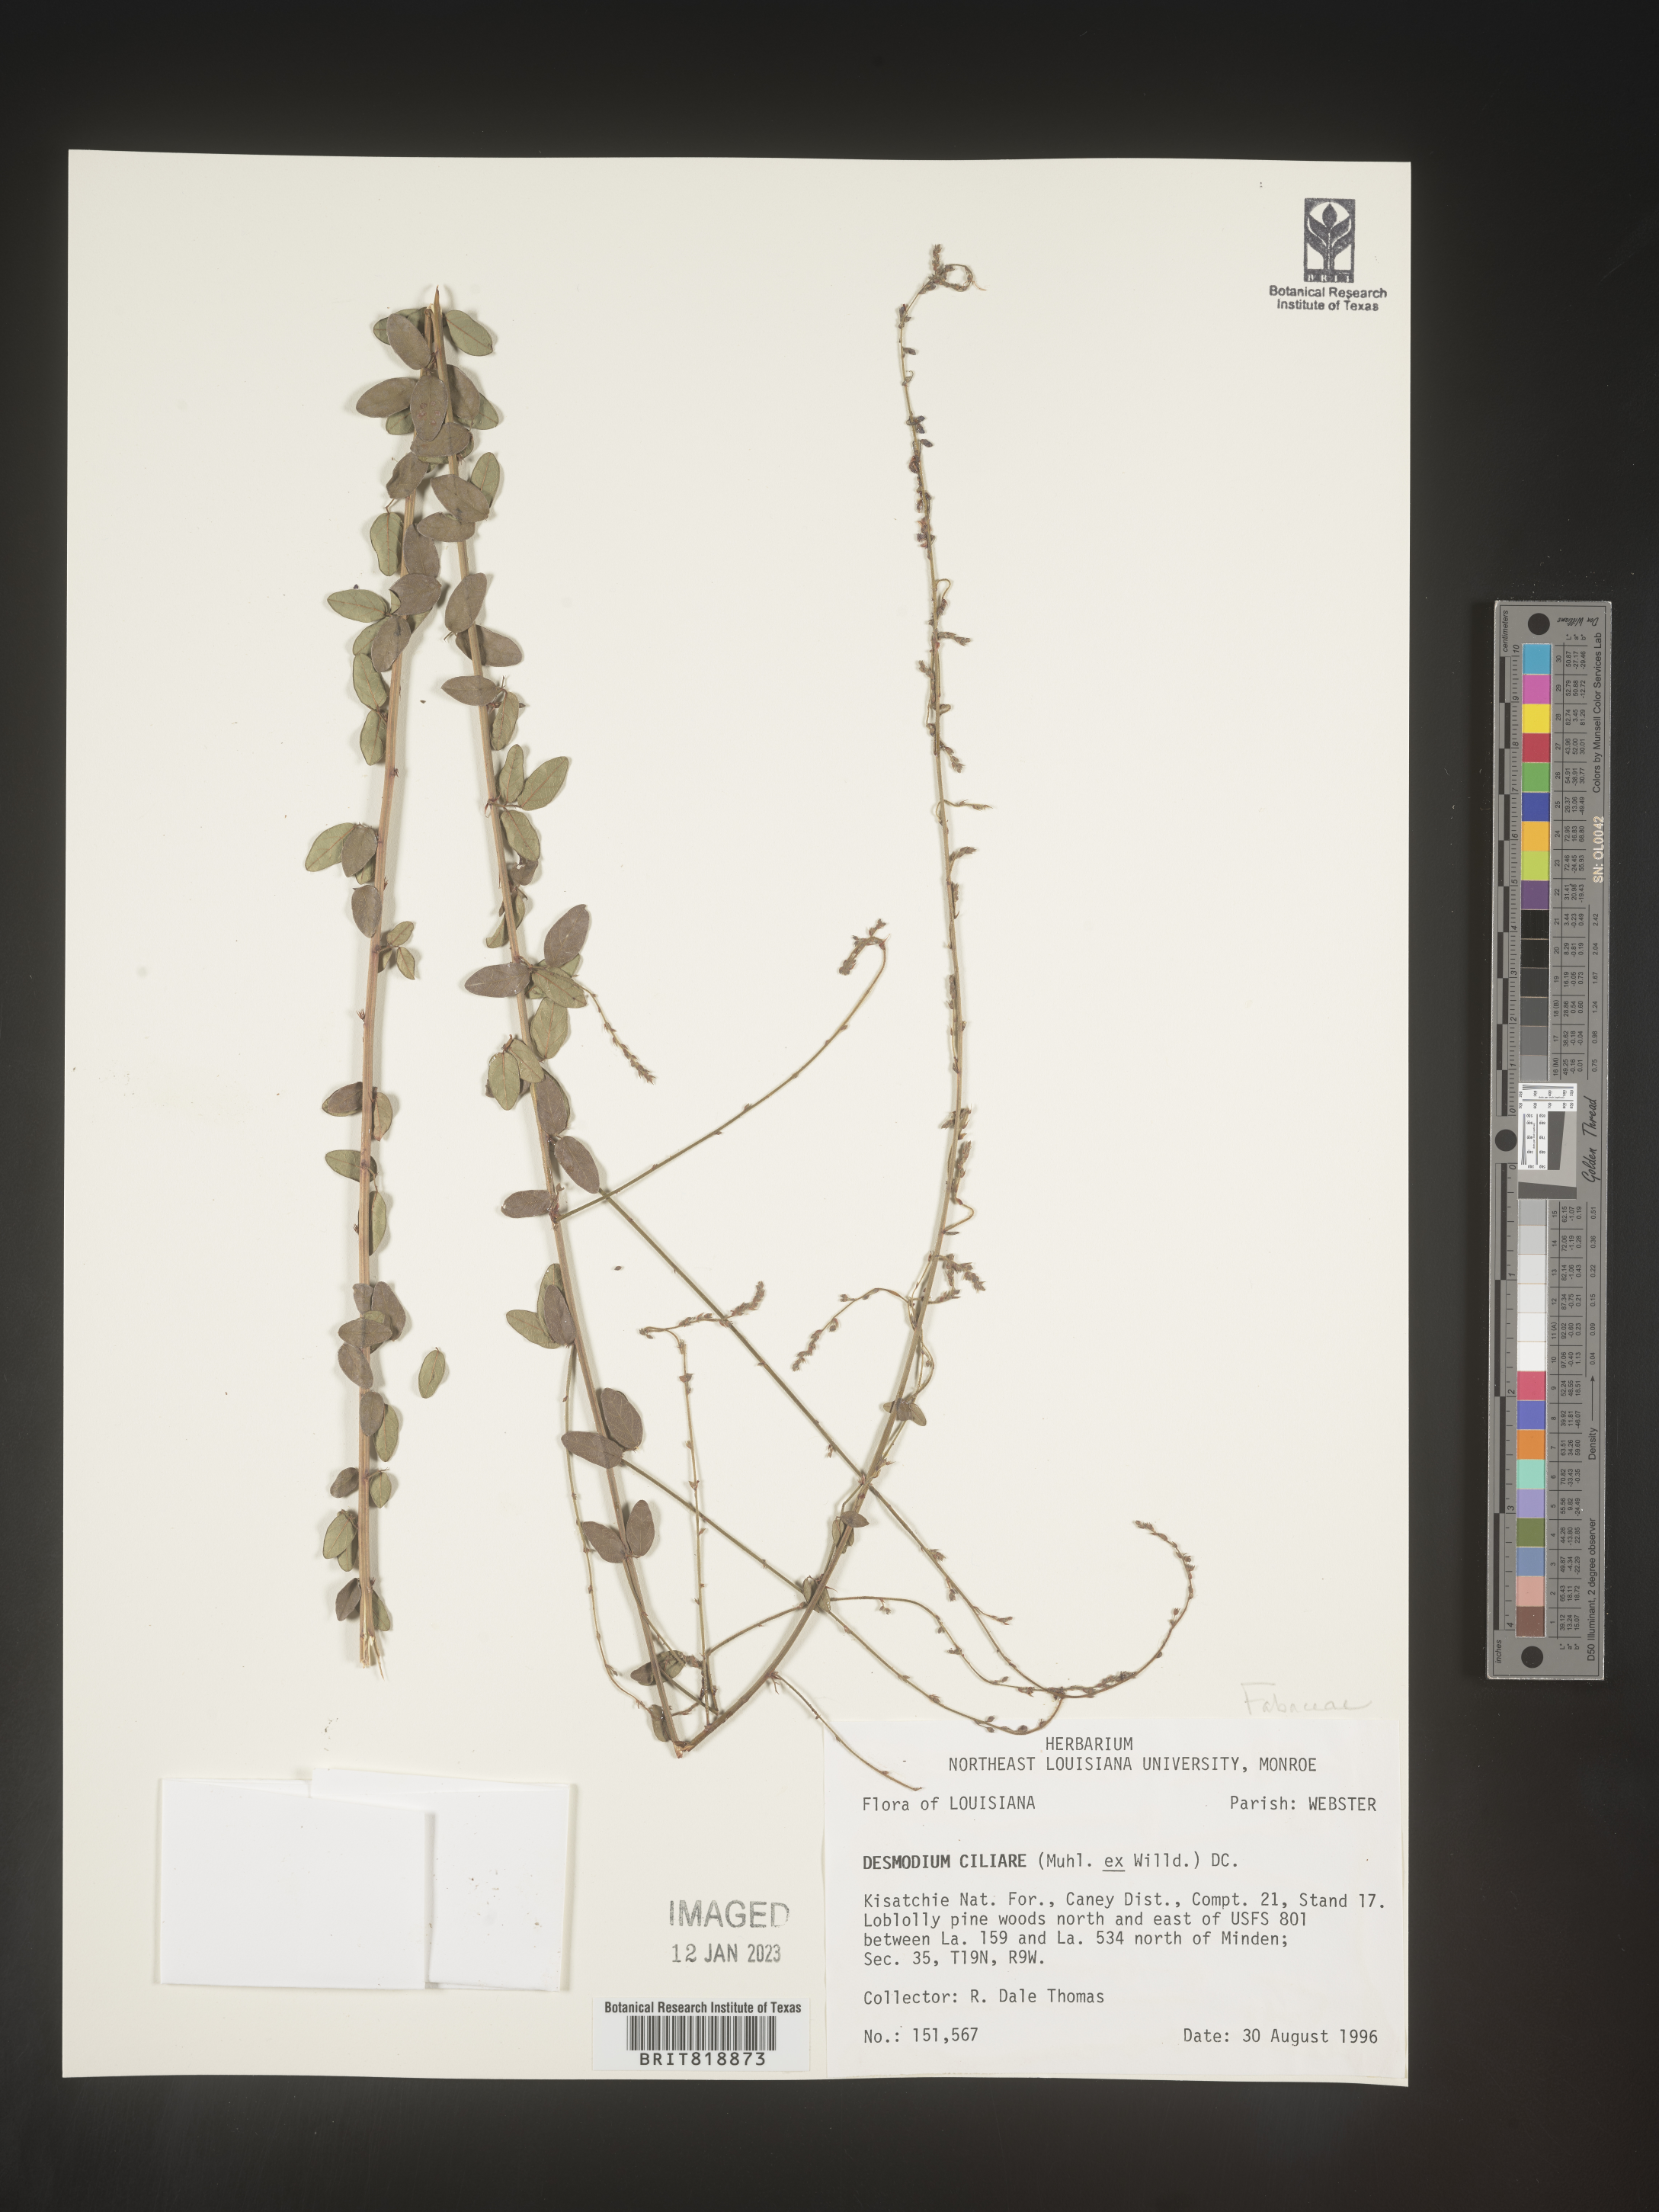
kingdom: Plantae
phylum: Tracheophyta
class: Magnoliopsida
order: Fabales
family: Fabaceae
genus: Desmodium
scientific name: Desmodium ciliare
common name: Hairy small-leaf ticktrefoil
